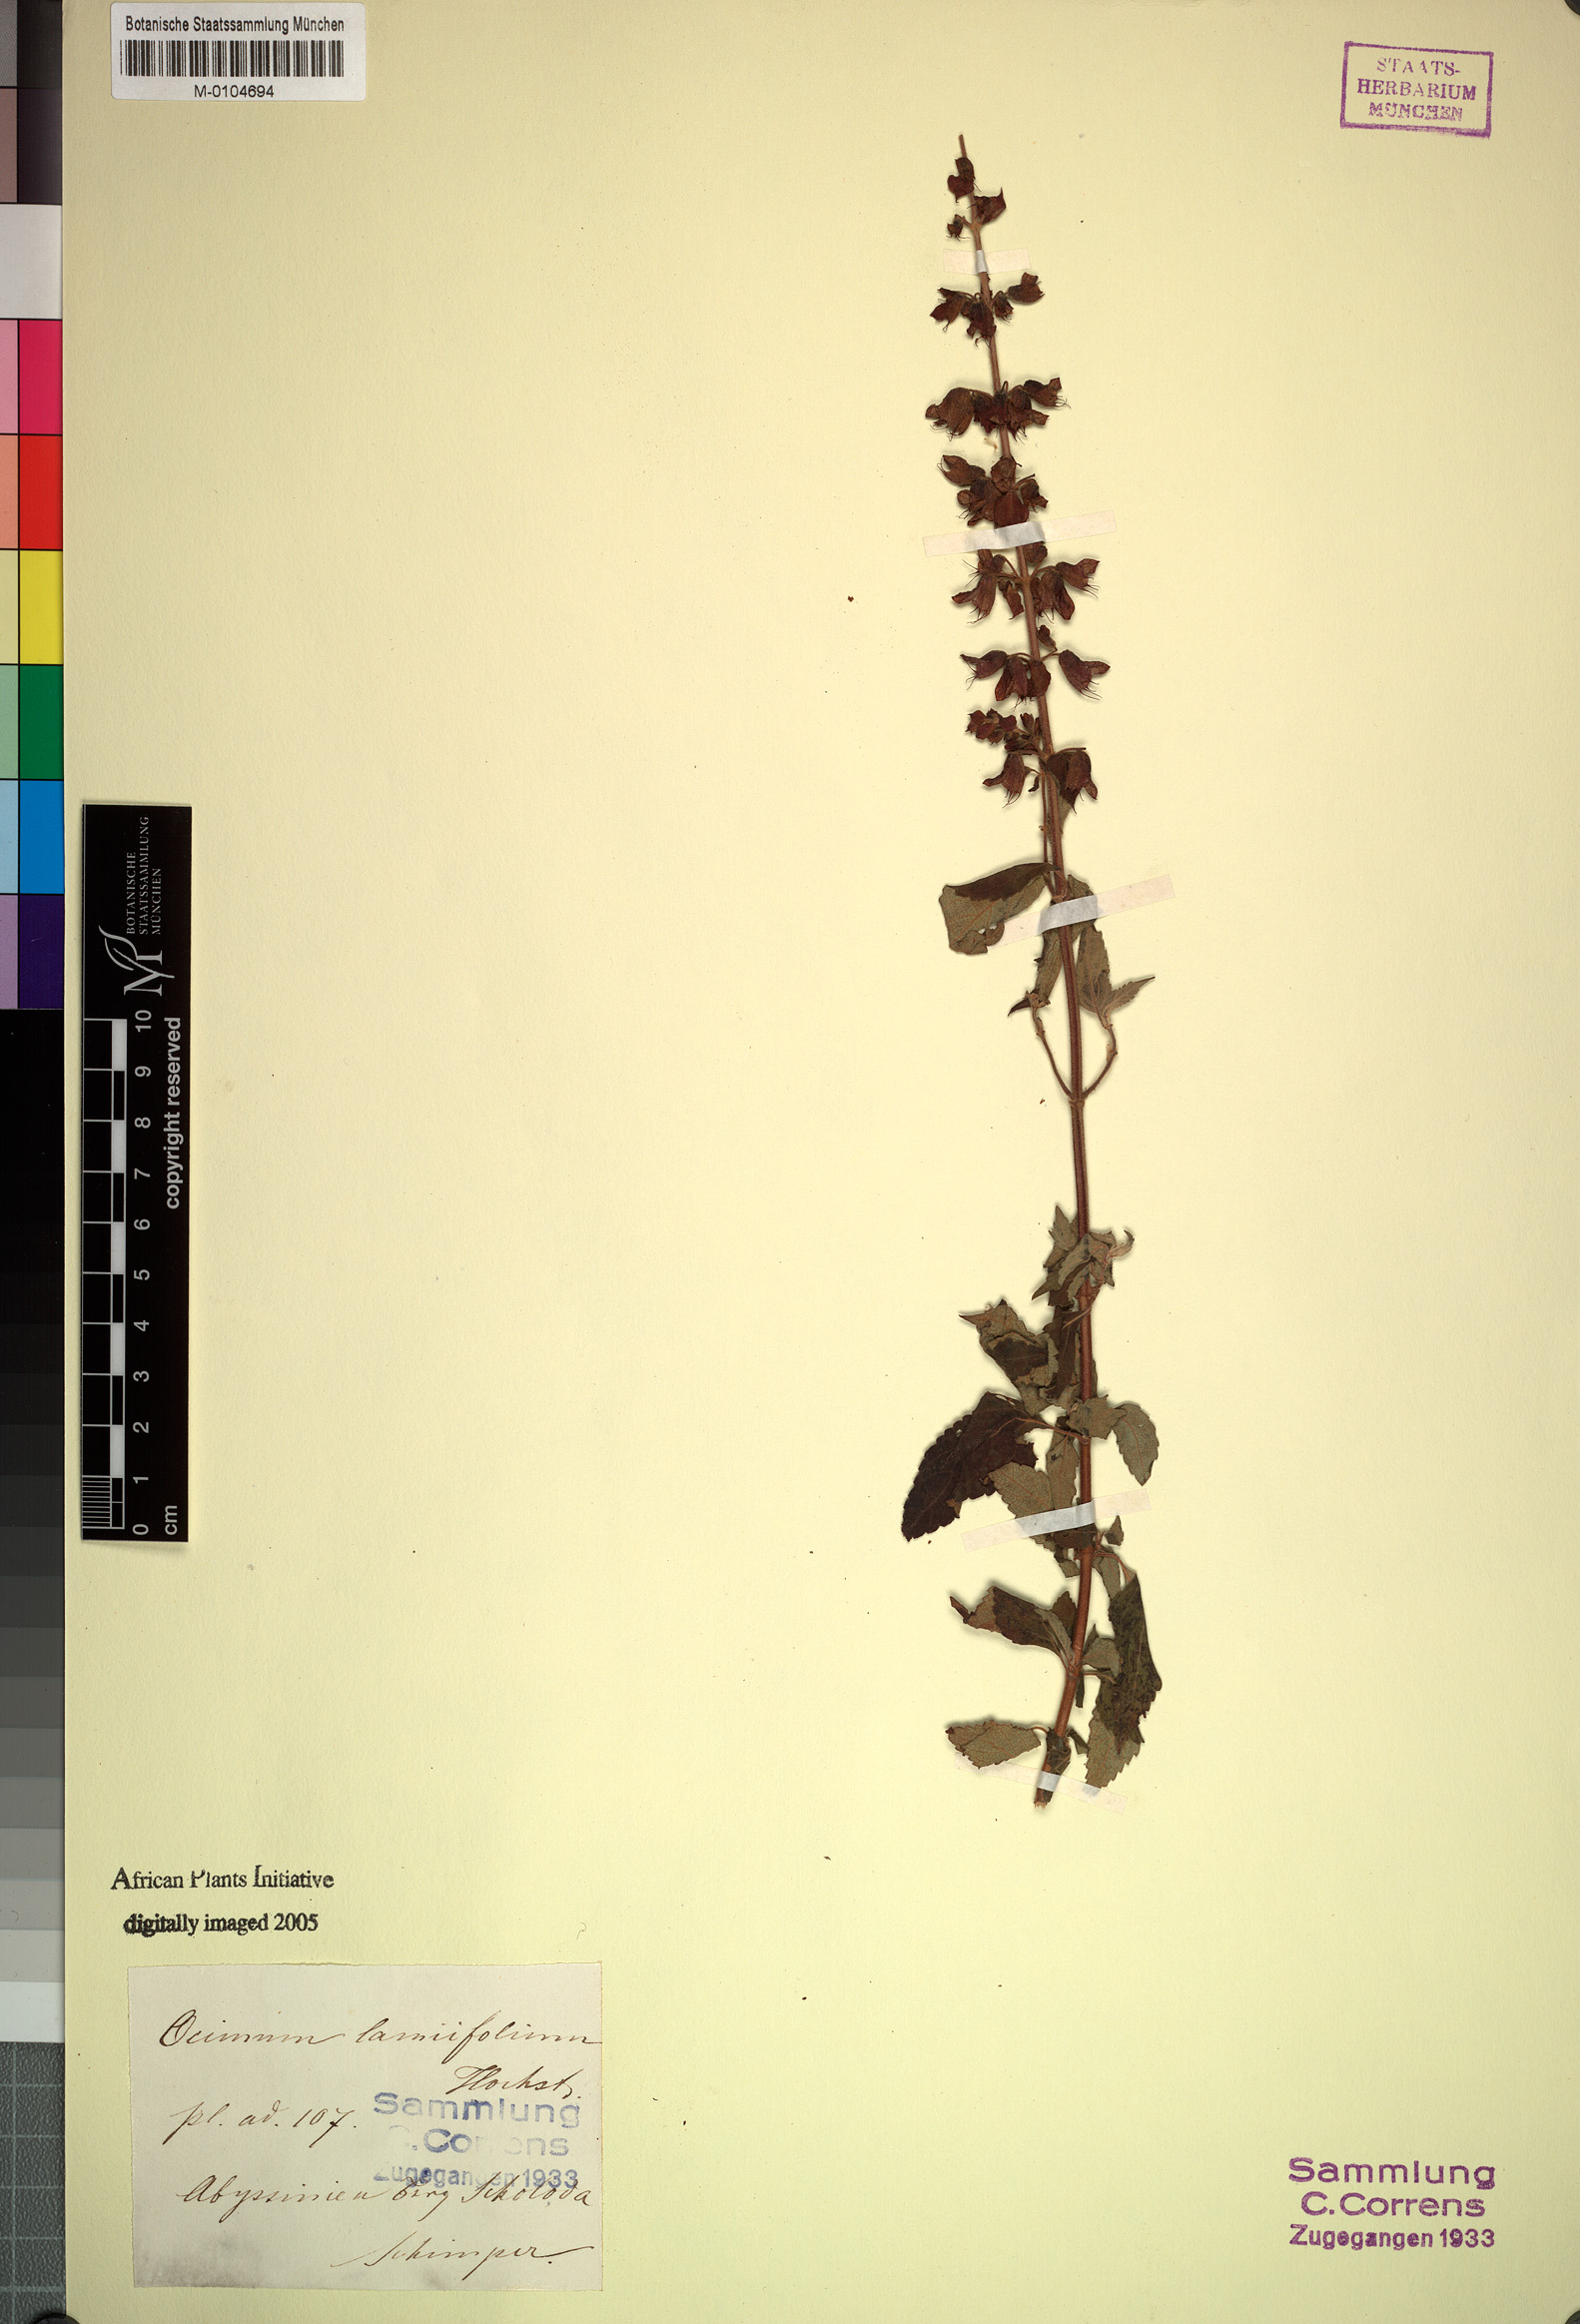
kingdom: Plantae
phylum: Tracheophyta
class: Magnoliopsida
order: Lamiales
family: Lamiaceae
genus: Ocimum
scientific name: Ocimum lamiifolium
